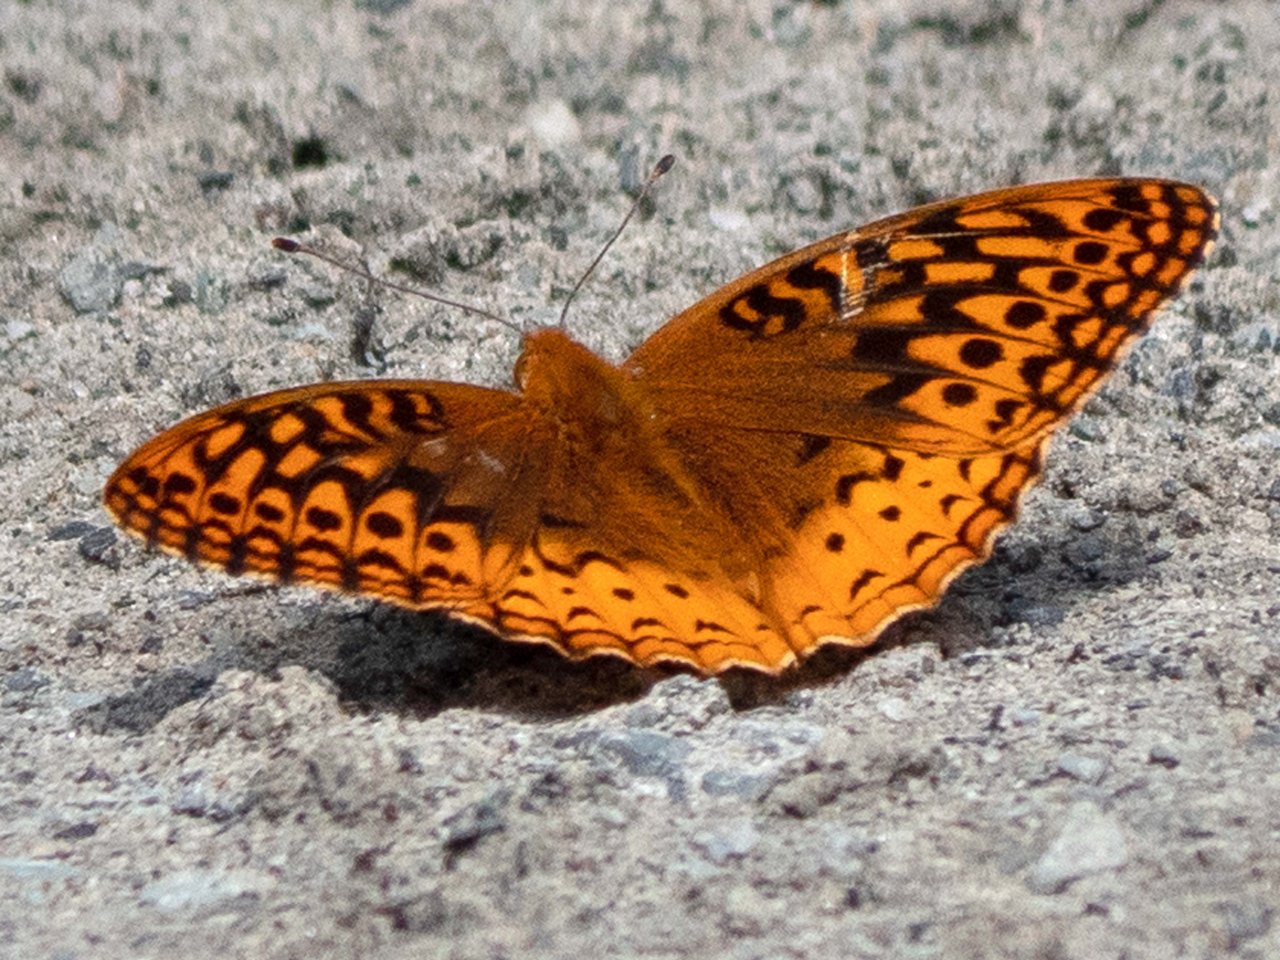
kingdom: Animalia
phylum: Arthropoda
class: Insecta
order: Lepidoptera
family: Nymphalidae
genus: Speyeria
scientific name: Speyeria cybele
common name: Great Spangled Fritillary
